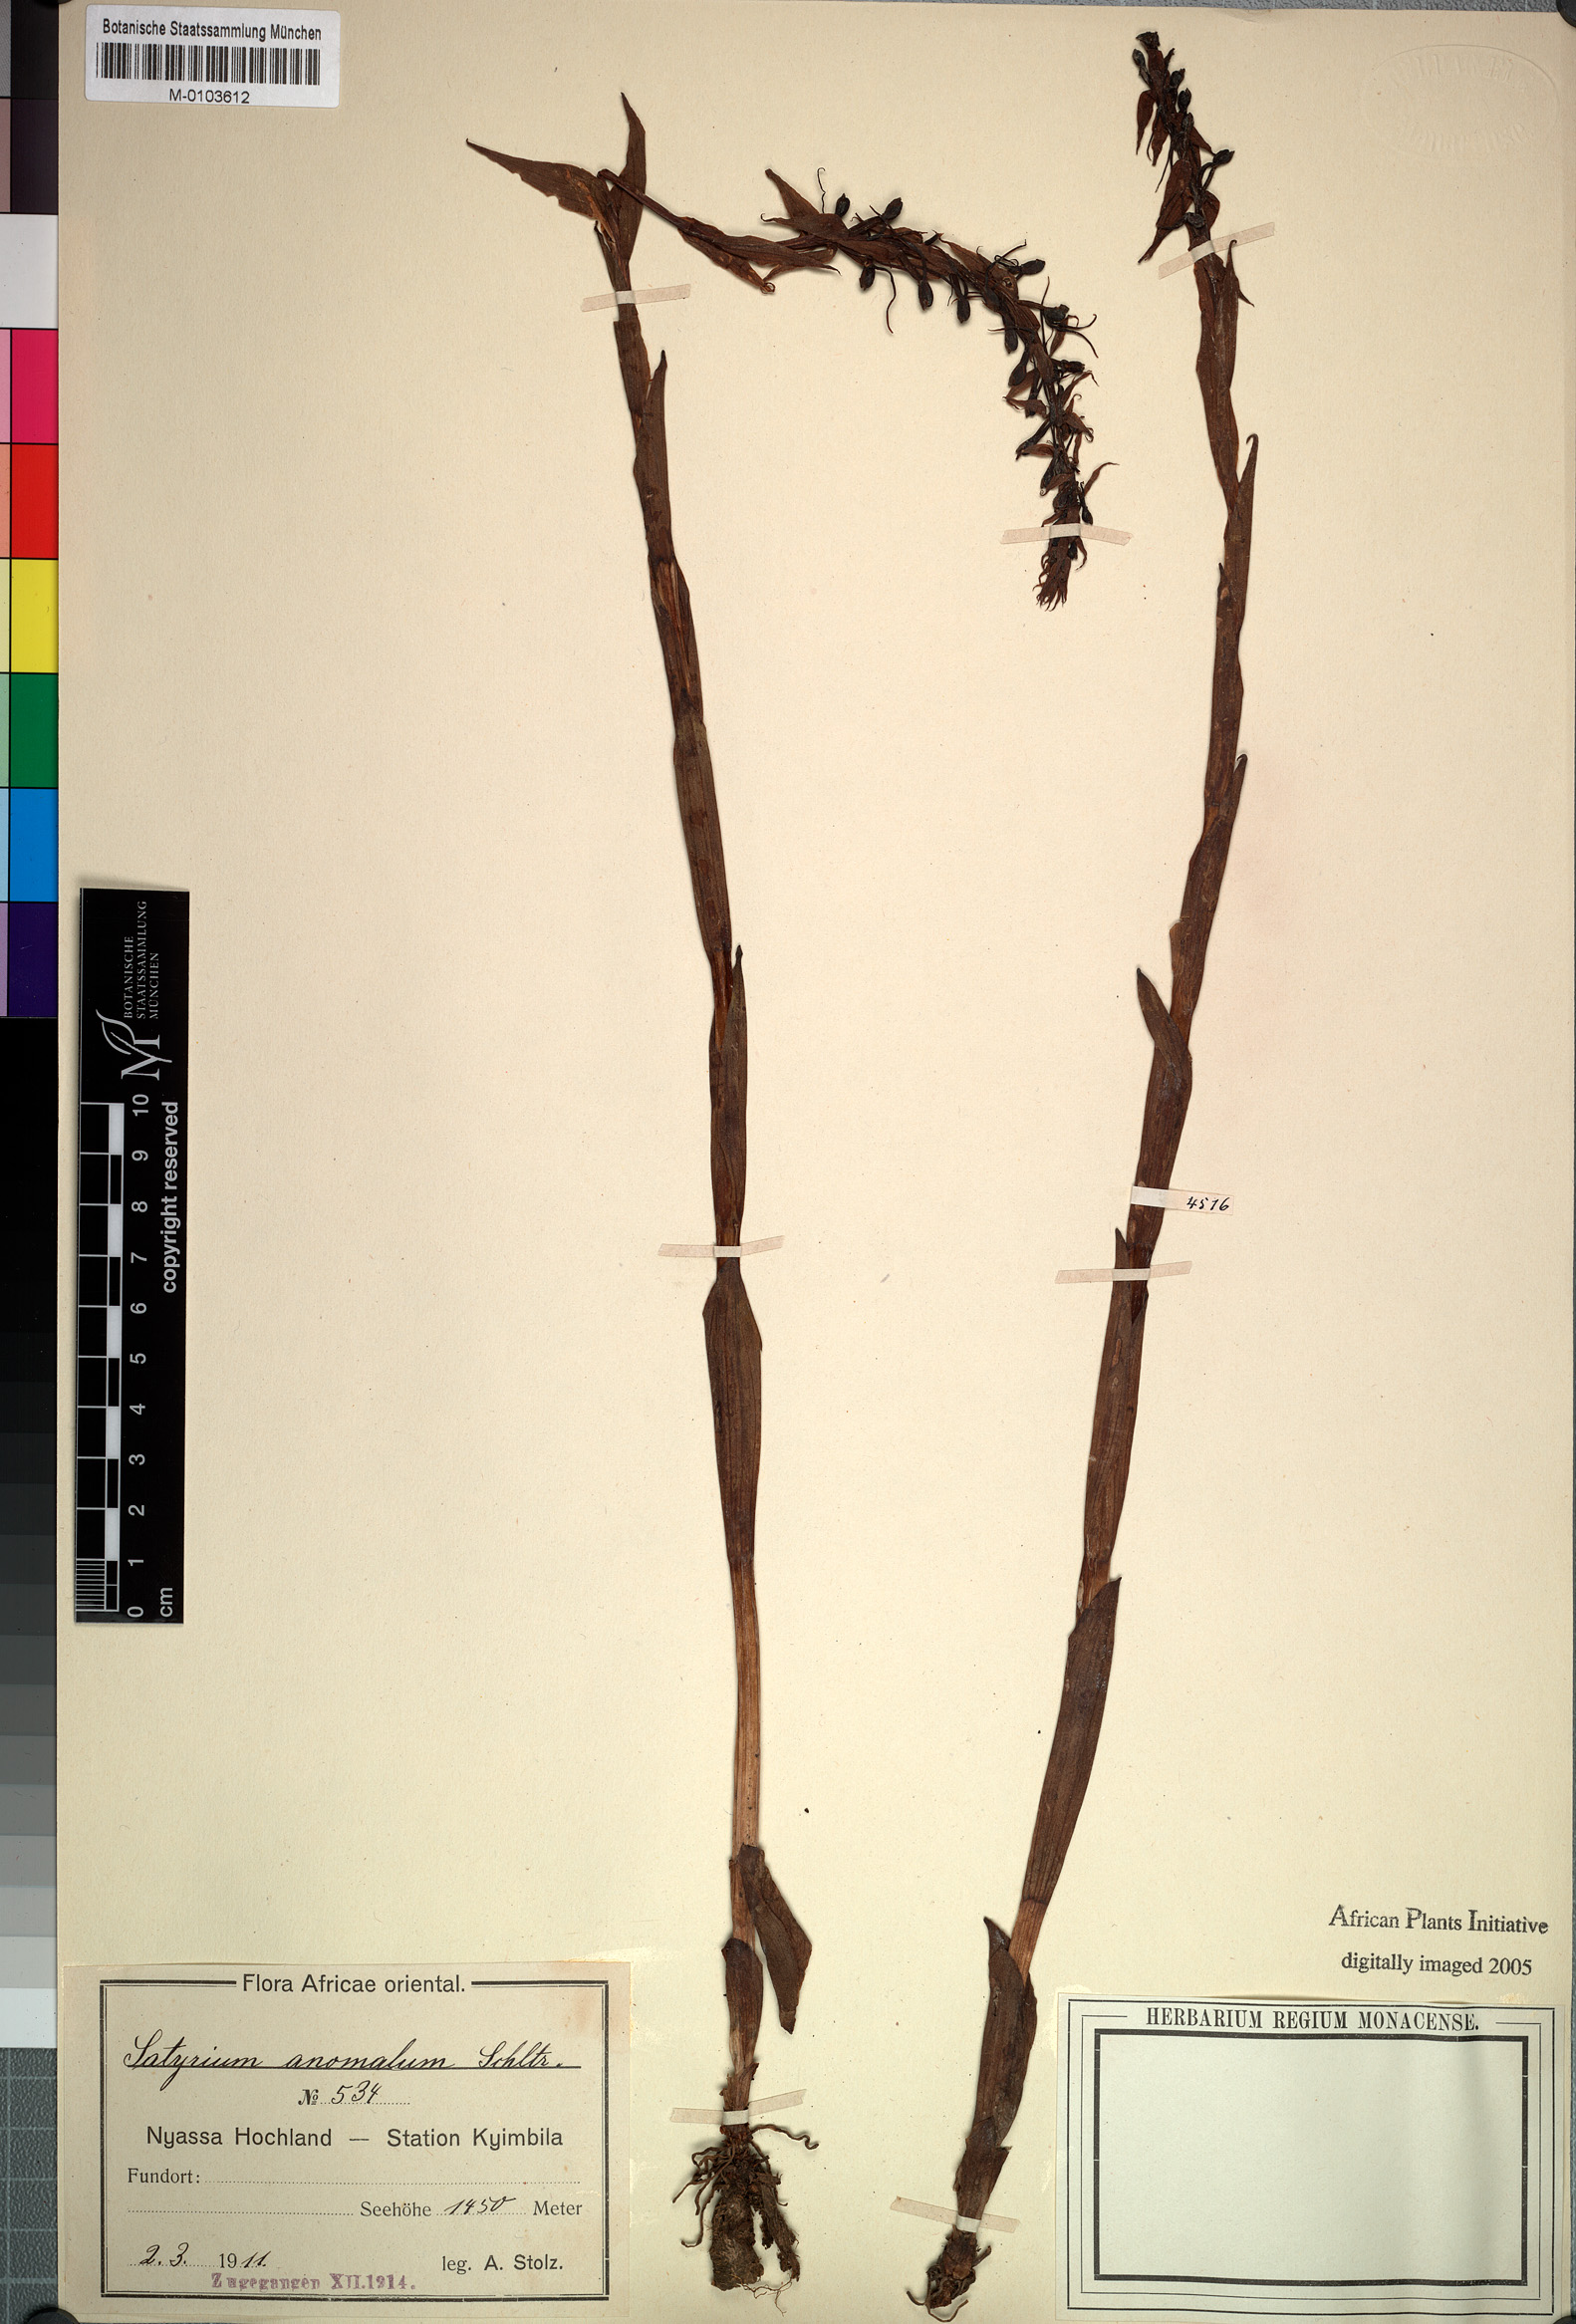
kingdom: Plantae
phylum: Tracheophyta
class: Liliopsida
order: Asparagales
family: Orchidaceae
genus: Satyrium
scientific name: Satyrium anomalum
